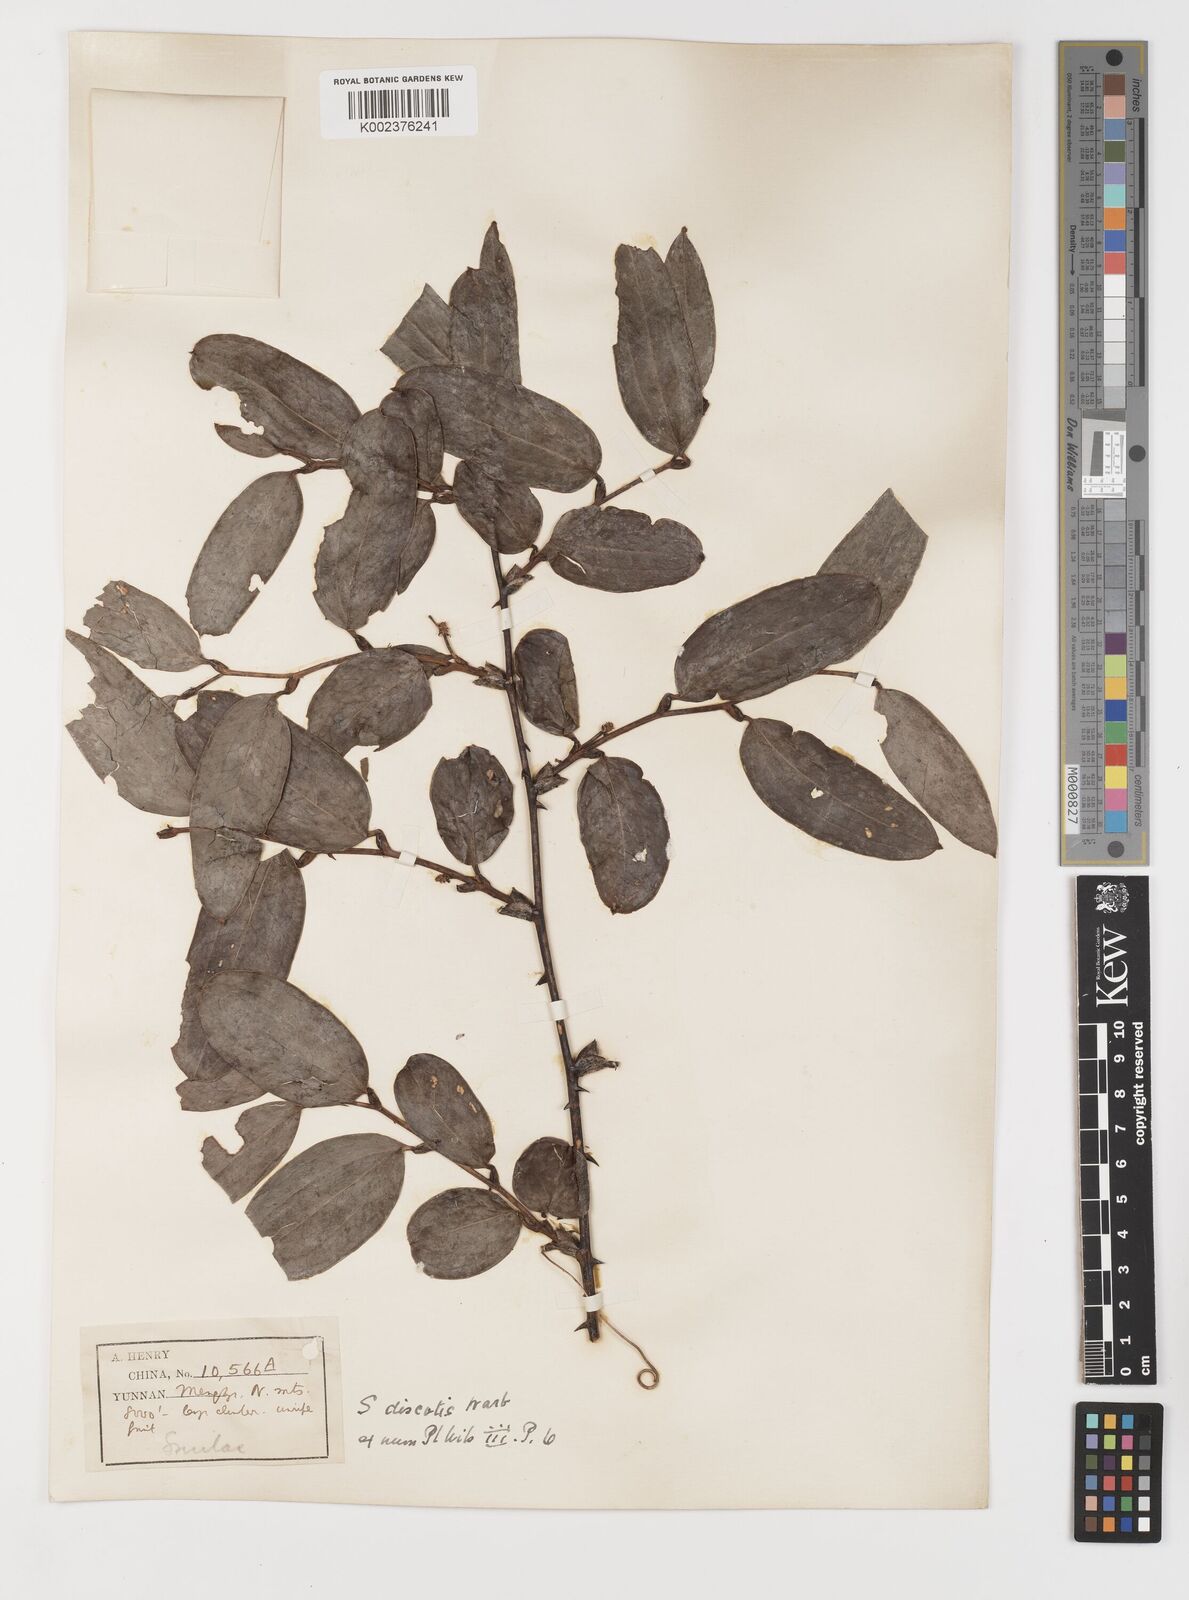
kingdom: Plantae
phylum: Tracheophyta
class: Liliopsida
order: Liliales
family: Smilacaceae
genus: Smilax
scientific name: Smilax ferox
